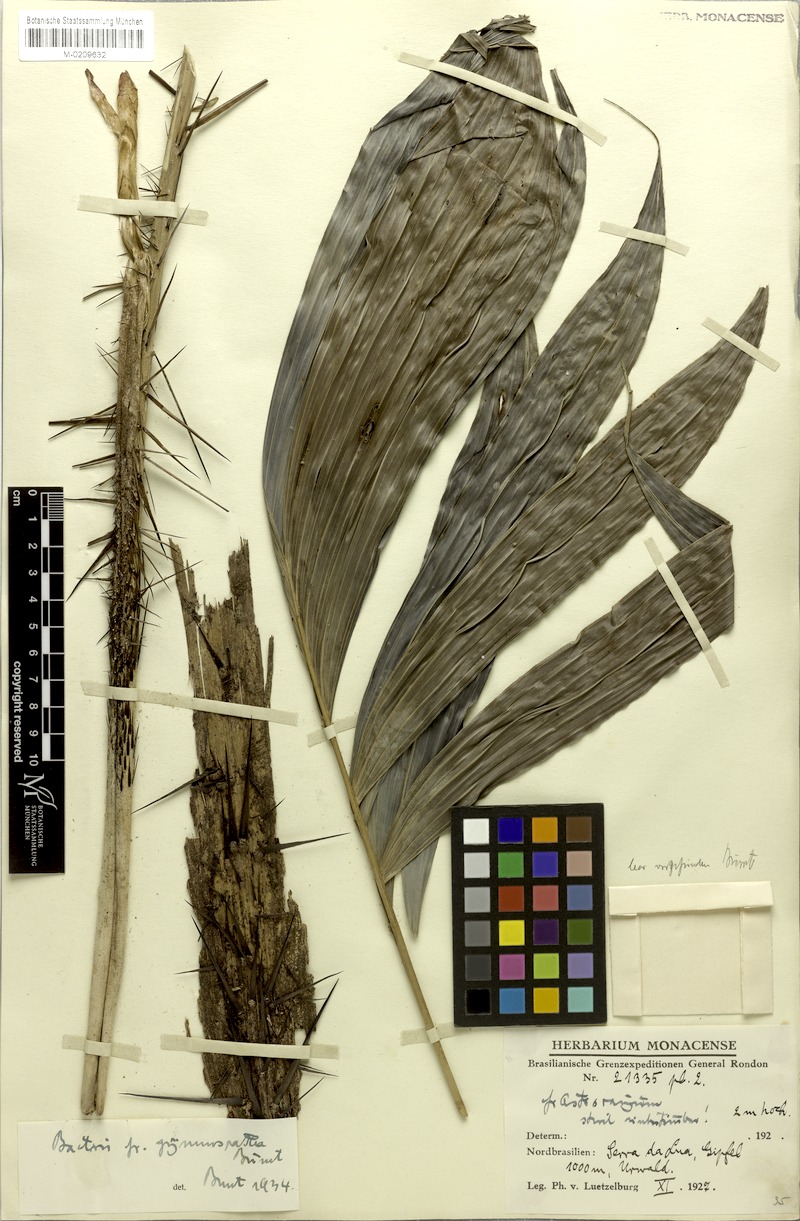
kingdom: Plantae
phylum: Tracheophyta
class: Liliopsida
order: Arecales
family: Arecaceae
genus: Bactris
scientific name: Bactris maraja
